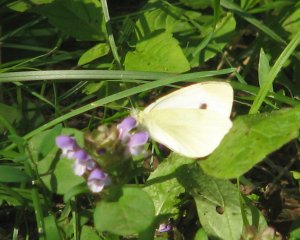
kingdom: Animalia
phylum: Arthropoda
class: Insecta
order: Lepidoptera
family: Pieridae
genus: Pieris
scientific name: Pieris rapae
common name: Cabbage White
